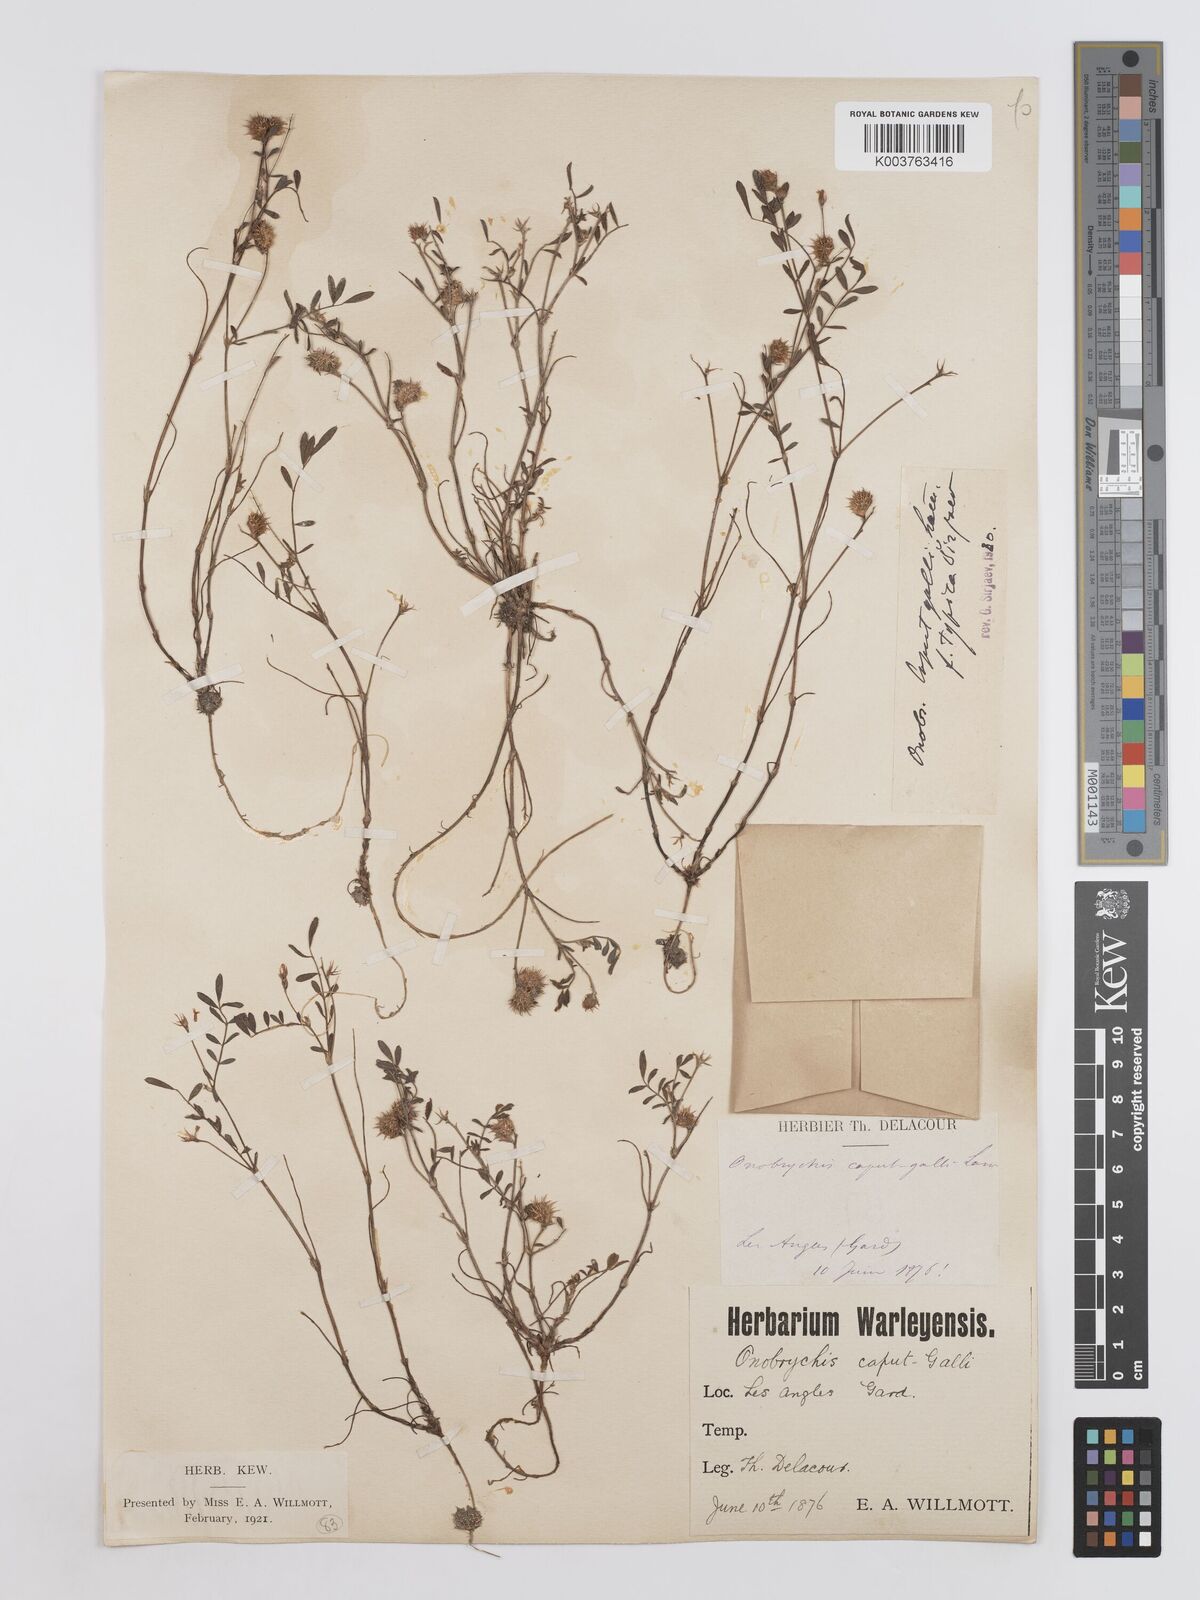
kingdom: Plantae
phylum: Tracheophyta
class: Magnoliopsida
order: Fabales
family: Fabaceae
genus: Onobrychis
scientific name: Onobrychis caput-galli
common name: Cockscomb sainfoin
